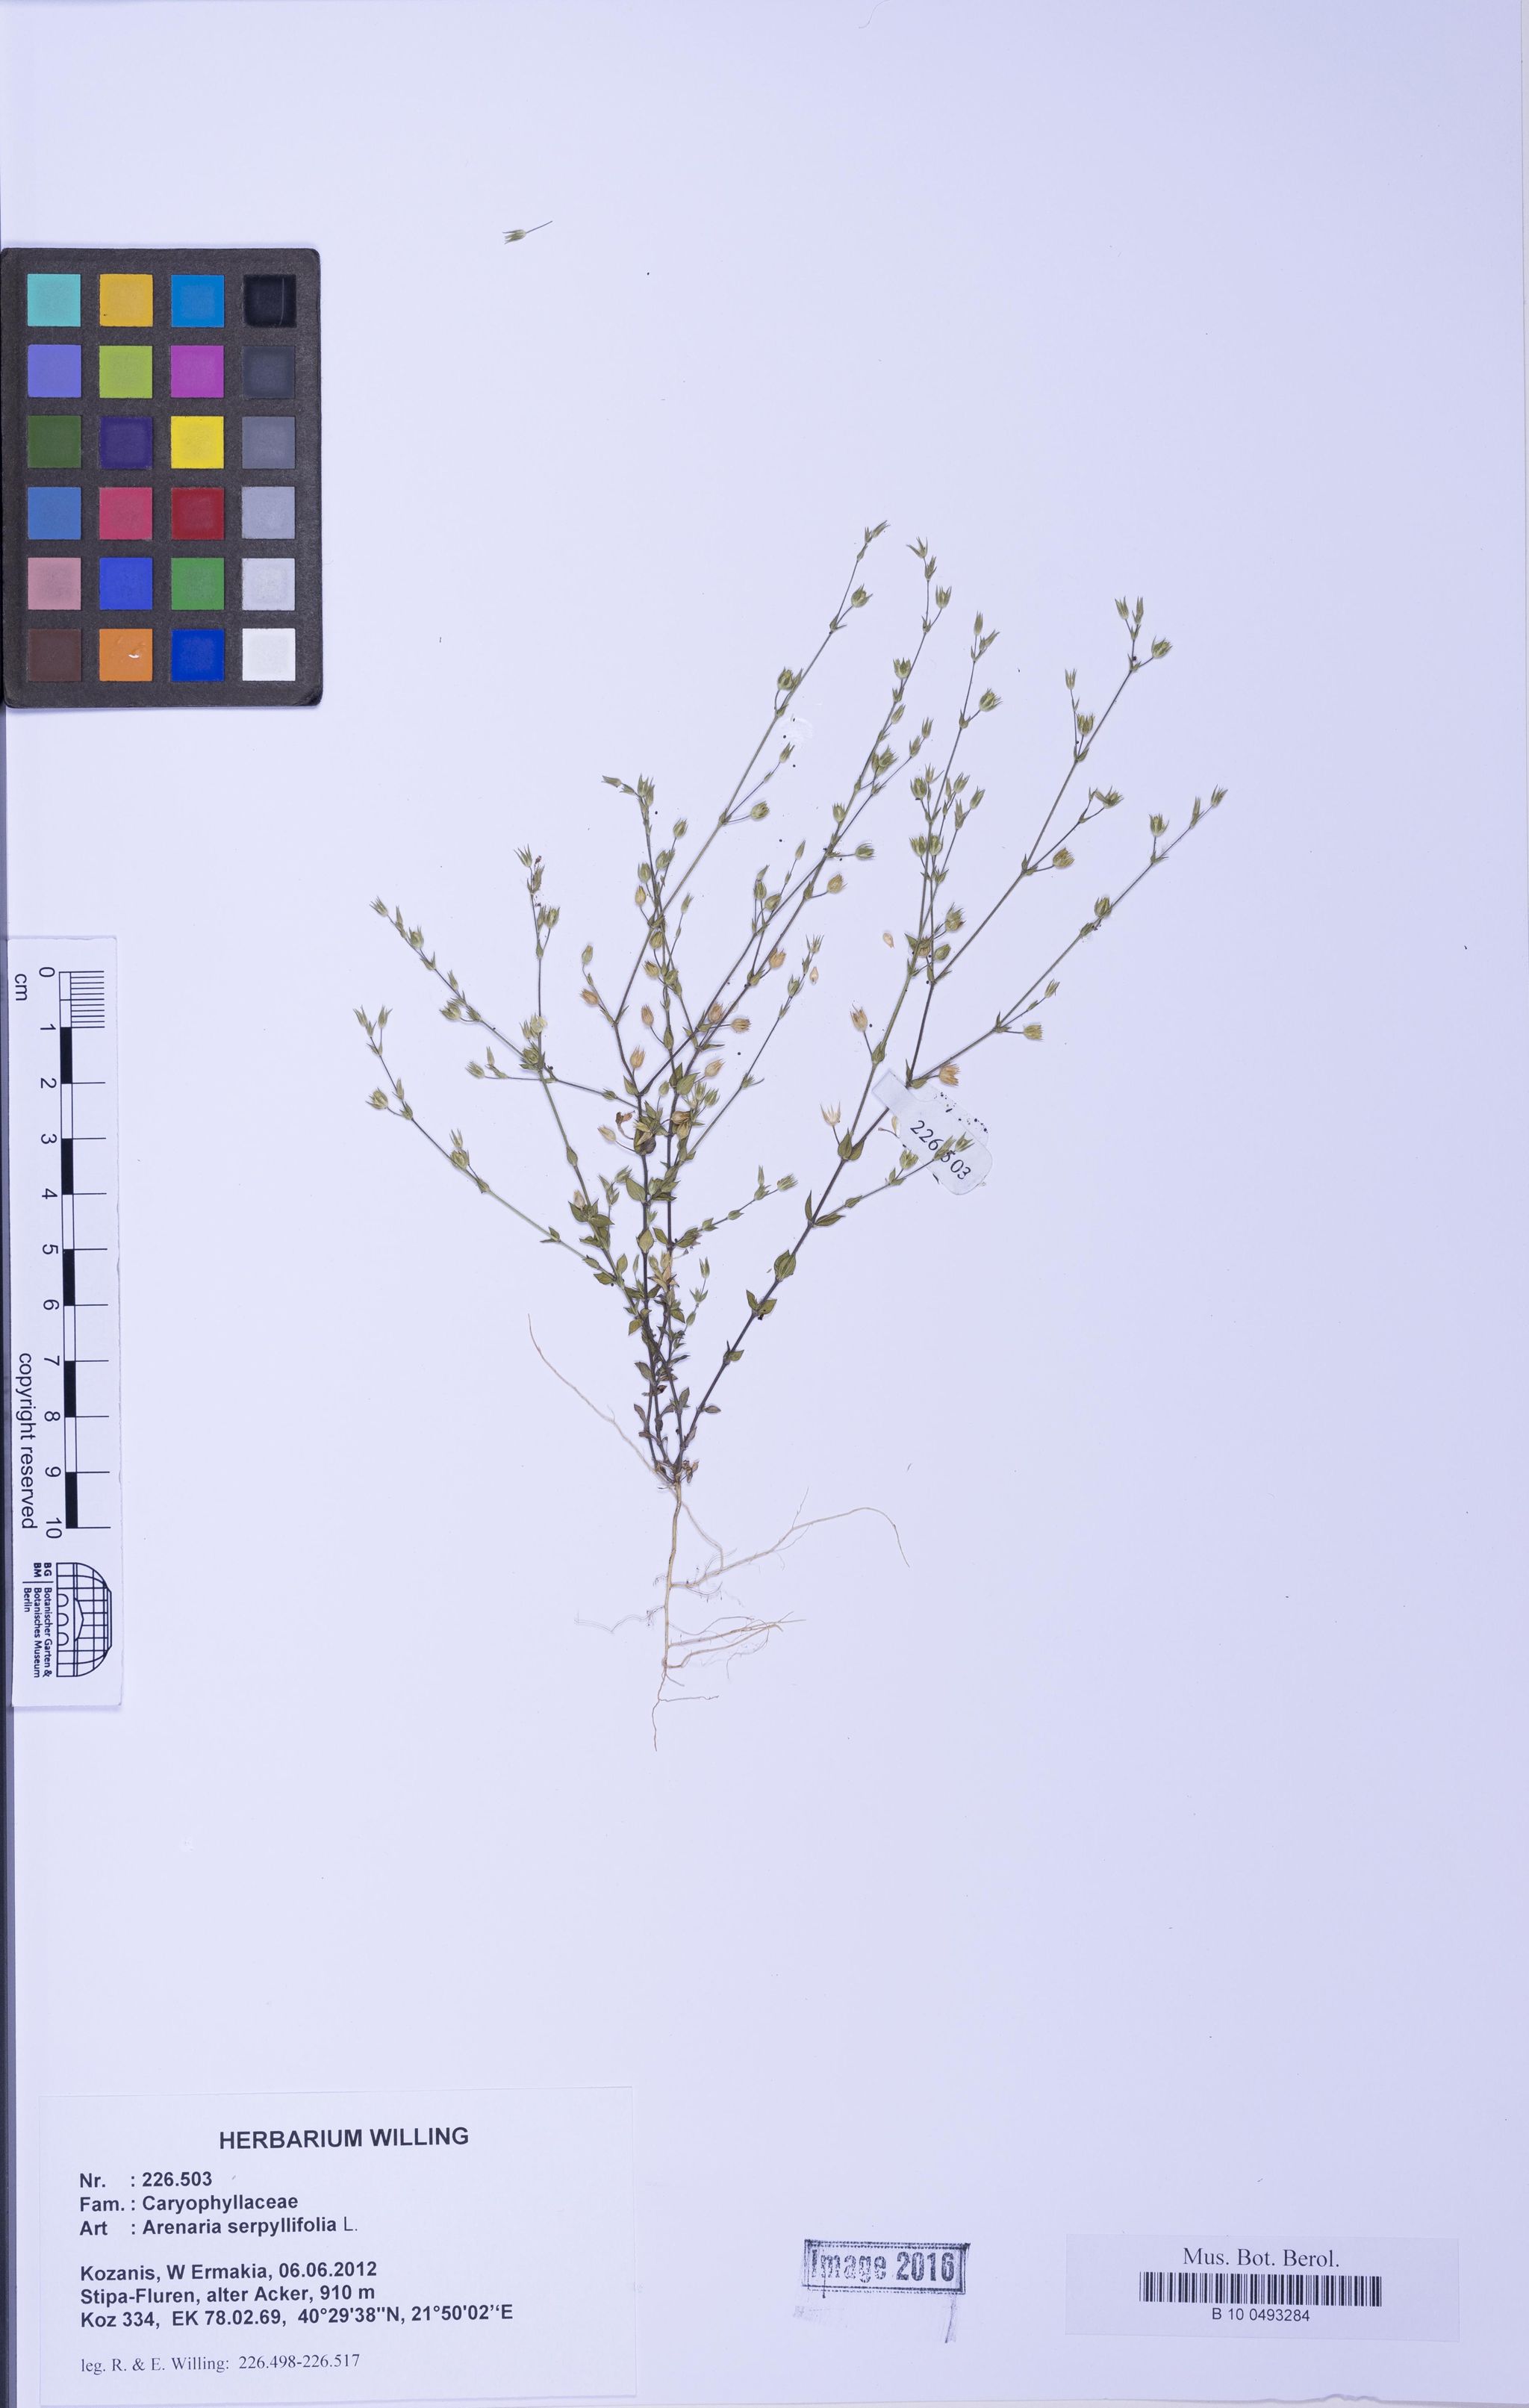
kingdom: Plantae
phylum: Tracheophyta
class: Magnoliopsida
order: Caryophyllales
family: Caryophyllaceae
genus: Arenaria
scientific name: Arenaria serpyllifolia
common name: Thyme-leaved sandwort
